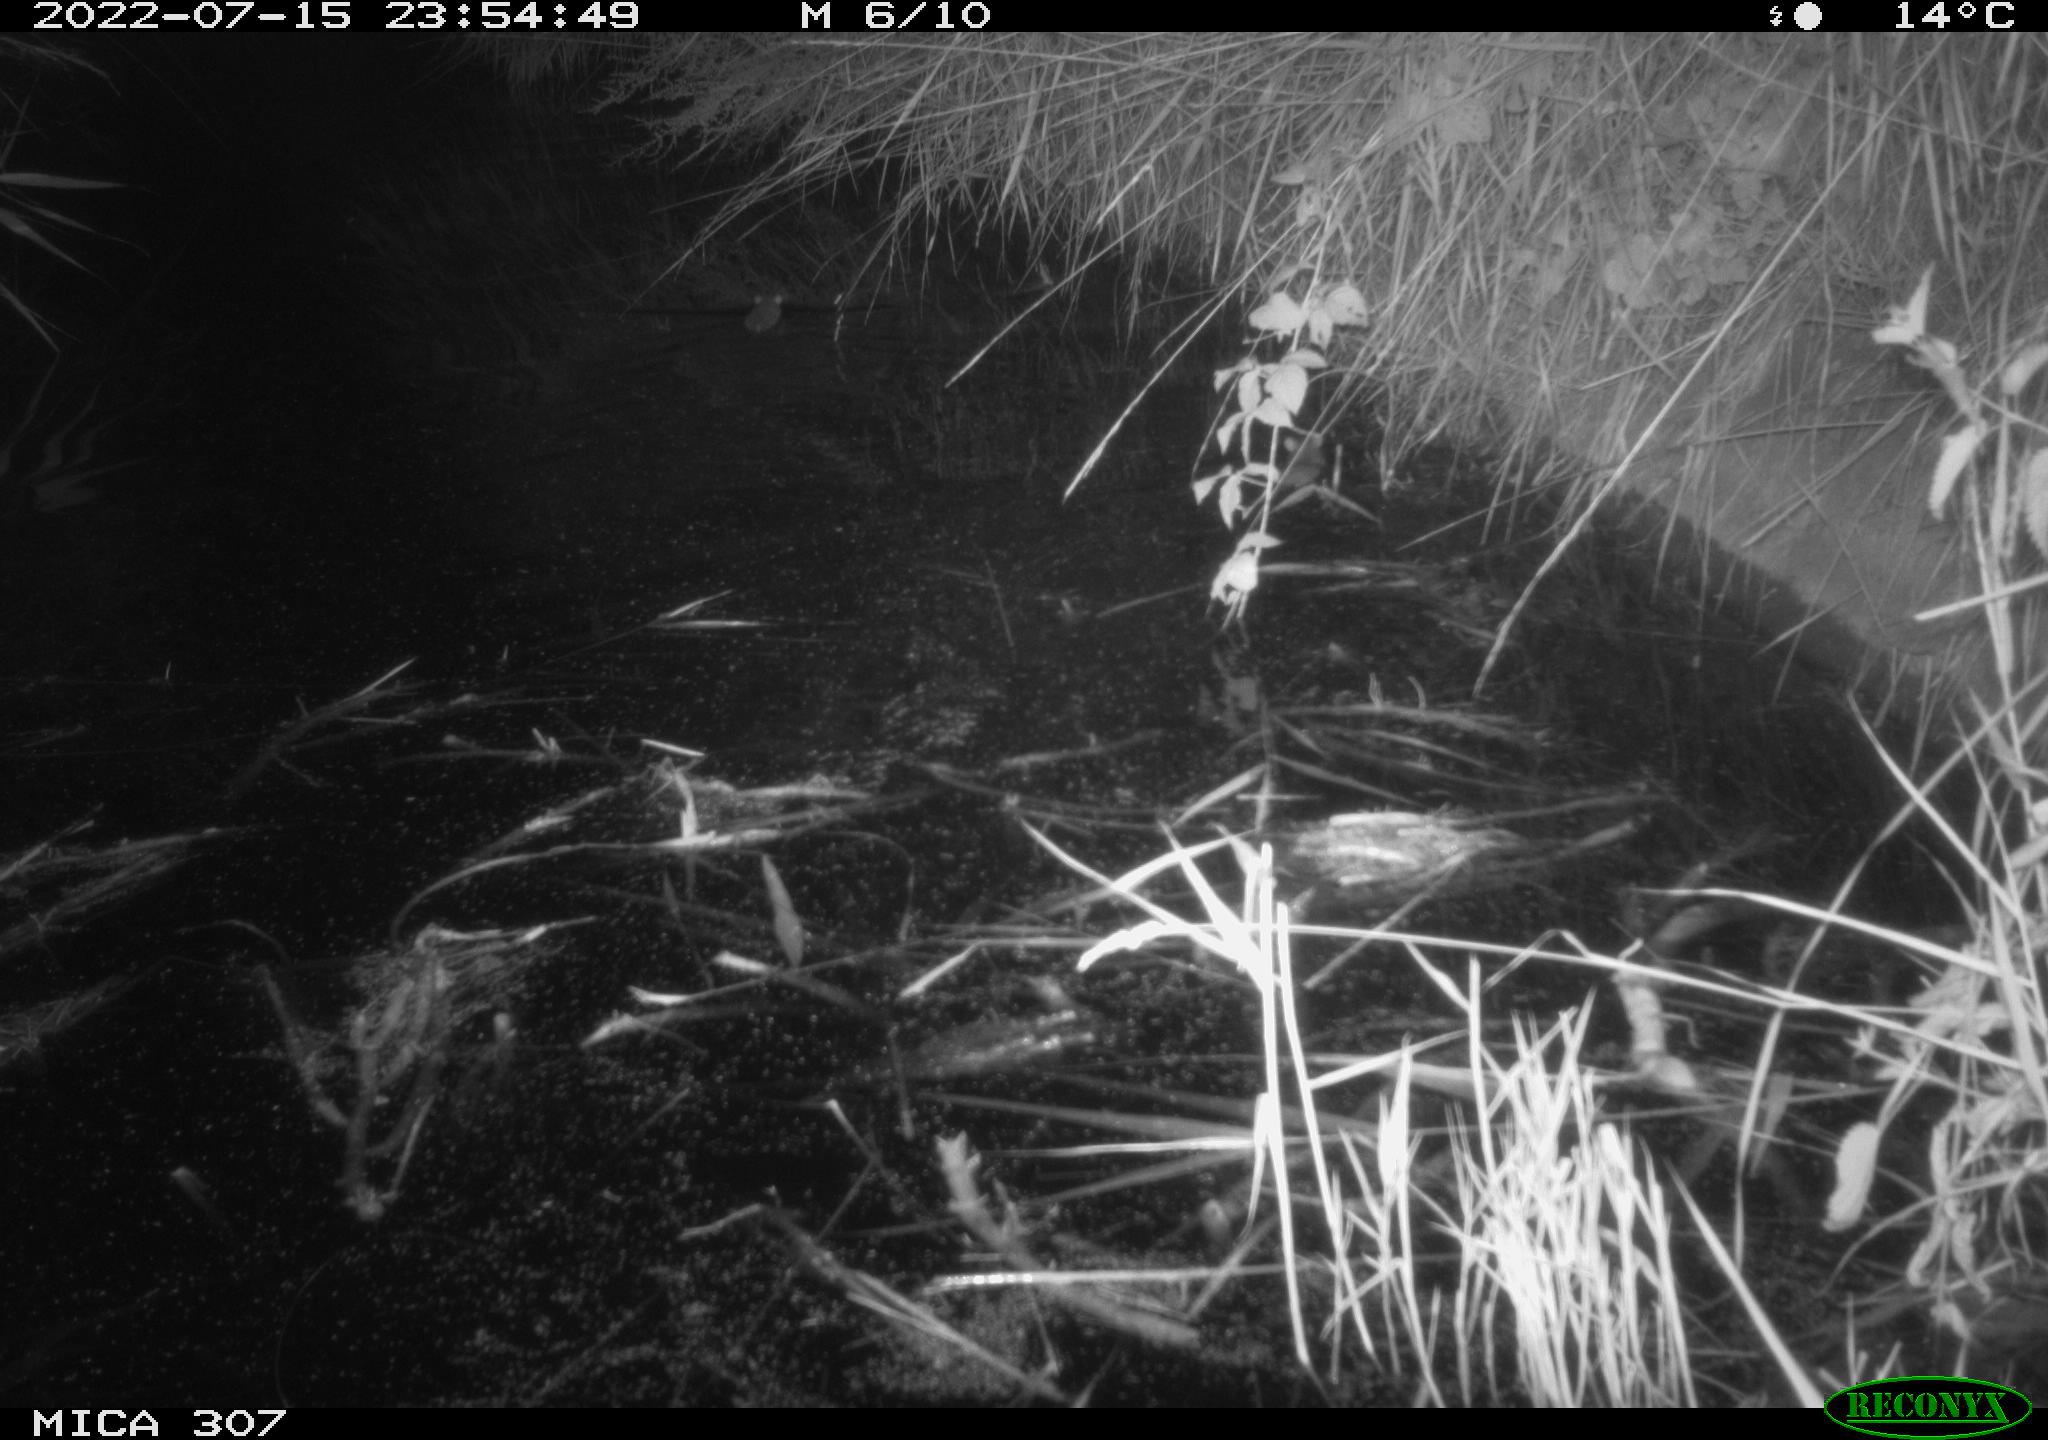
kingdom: Animalia
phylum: Chordata
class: Mammalia
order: Rodentia
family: Muridae
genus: Rattus
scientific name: Rattus norvegicus
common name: Brown rat
